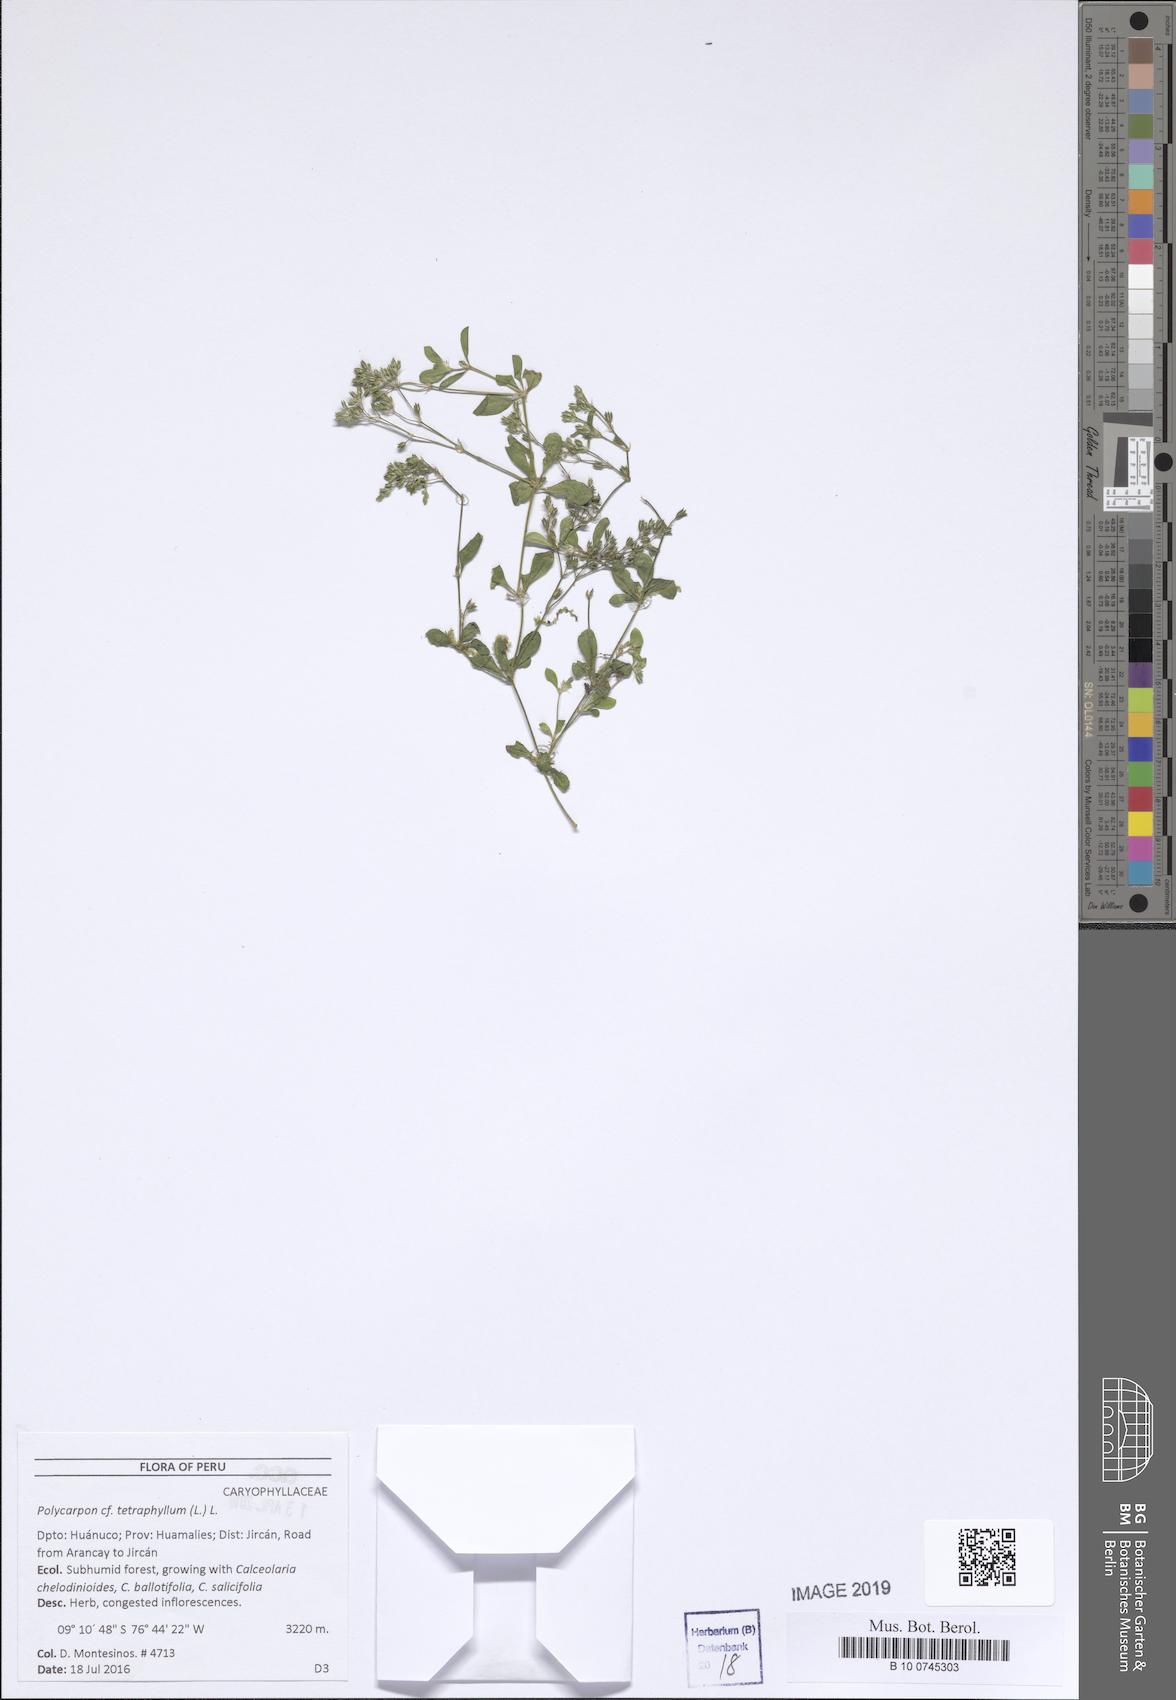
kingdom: Plantae
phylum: Tracheophyta
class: Magnoliopsida
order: Caryophyllales
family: Caryophyllaceae
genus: Polycarpon
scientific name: Polycarpon tetraphyllum
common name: Four-leaved all-seed
